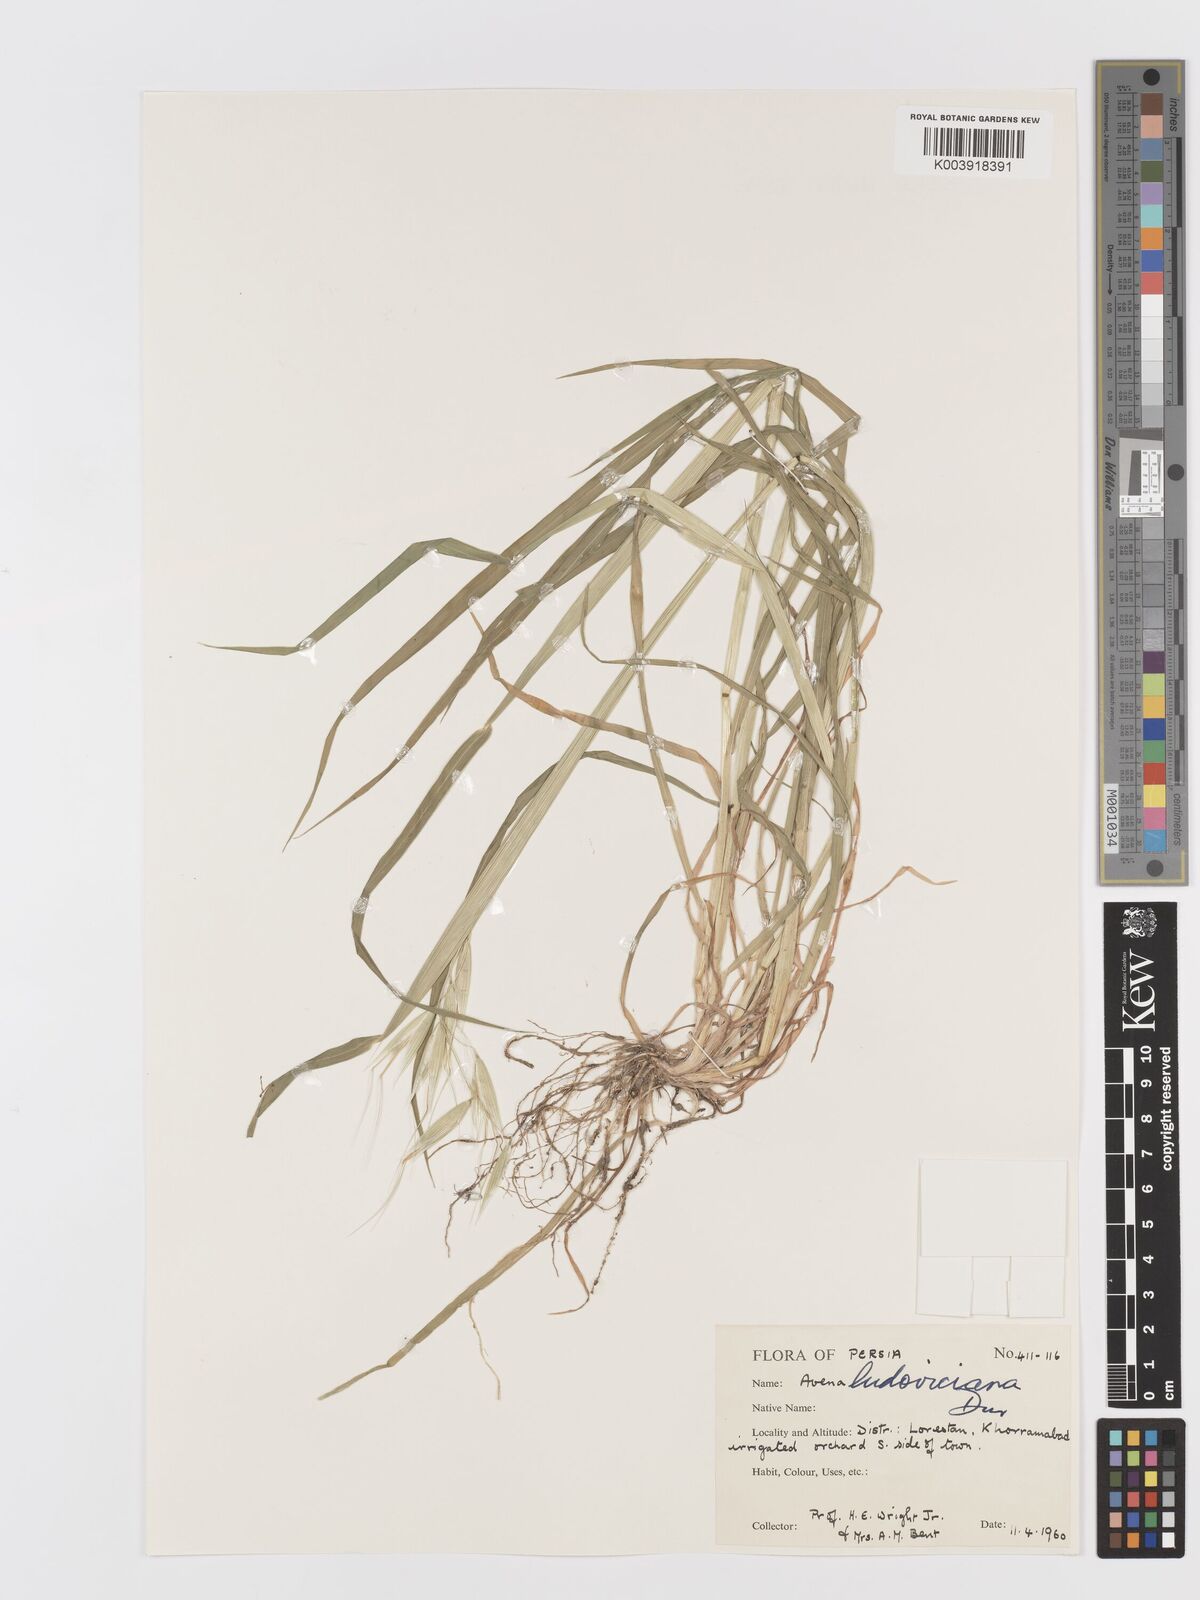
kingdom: Plantae
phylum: Tracheophyta
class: Liliopsida
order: Poales
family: Poaceae
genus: Avena
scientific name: Avena sterilis
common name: Animated oat
